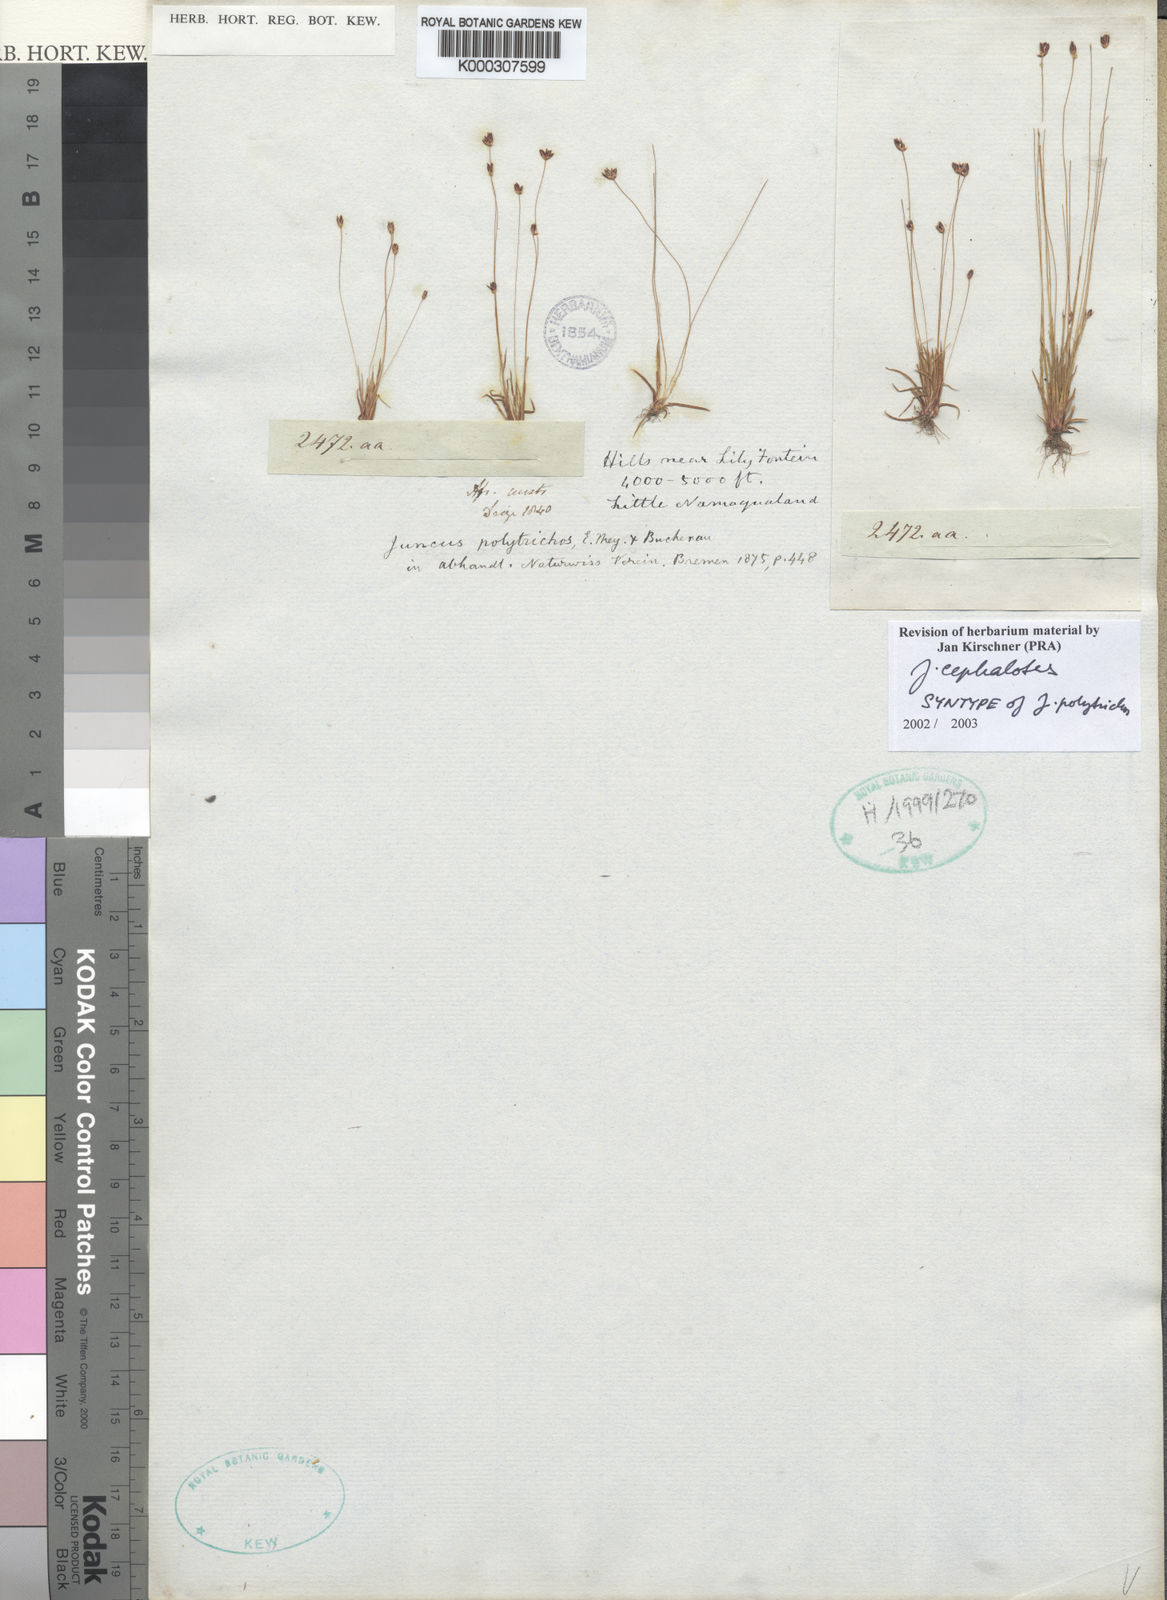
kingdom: Plantae
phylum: Tracheophyta
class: Liliopsida
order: Poales
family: Juncaceae
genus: Juncus
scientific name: Juncus cephalotes
